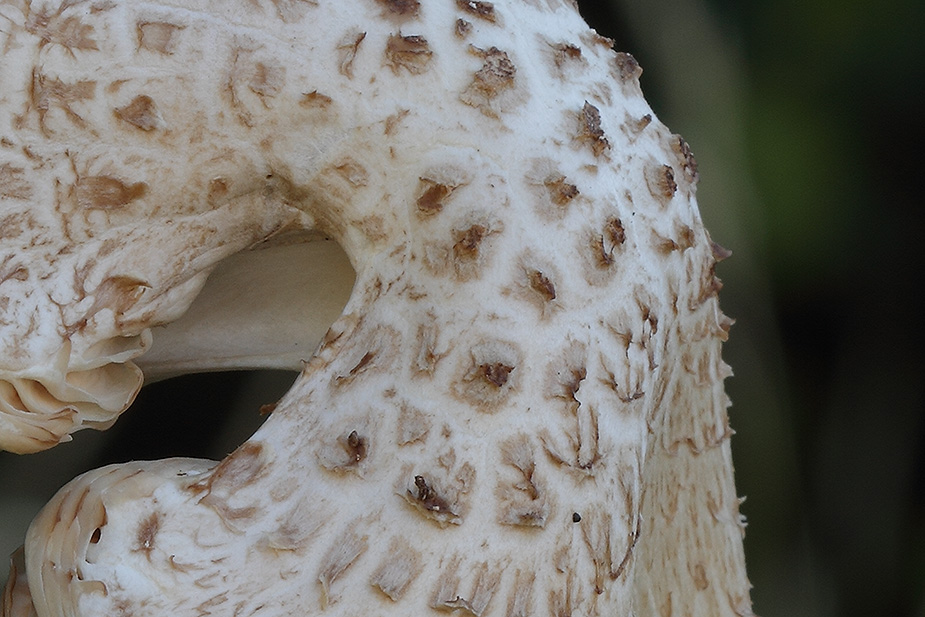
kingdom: Fungi
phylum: Basidiomycota
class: Agaricomycetes
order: Agaricales
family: Pluteaceae
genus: Pluteus
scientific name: Pluteus petasatus
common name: savsmulds-skærmhat
